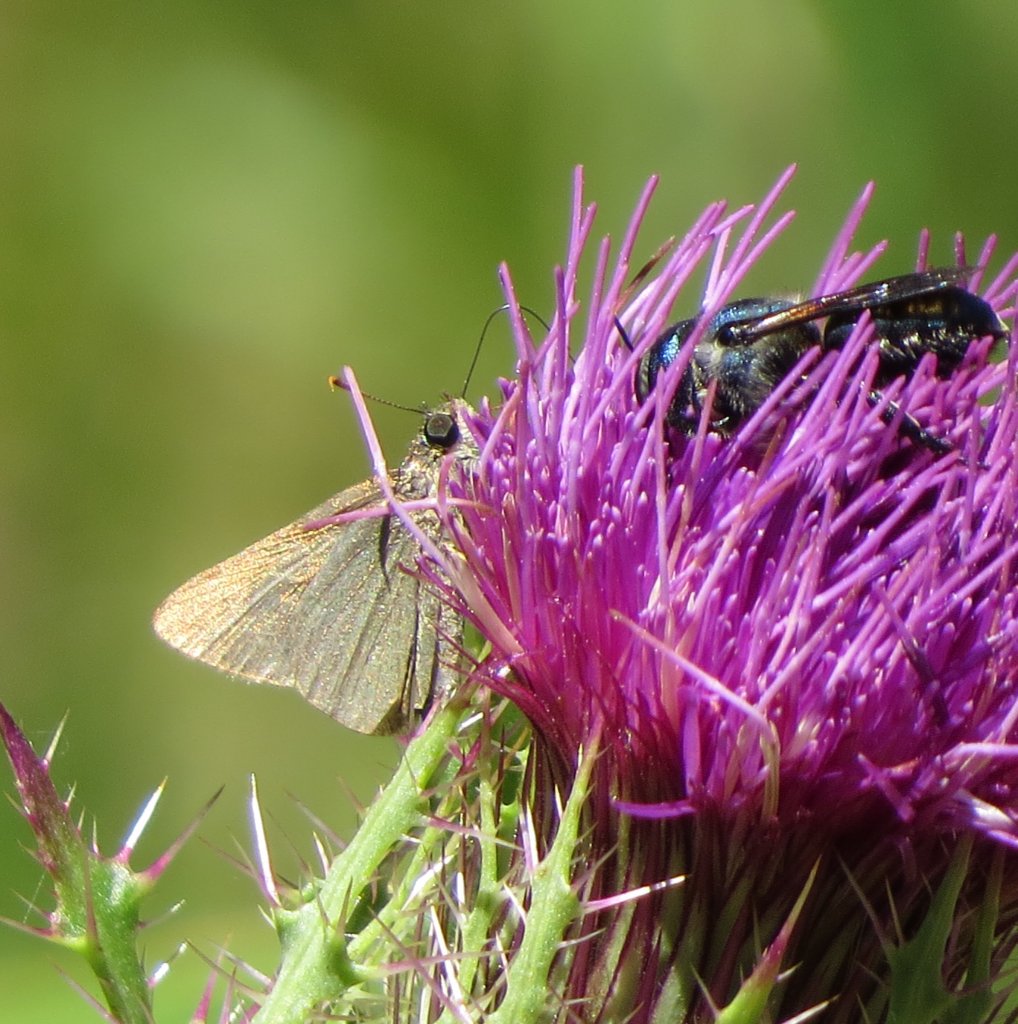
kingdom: Animalia
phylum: Arthropoda
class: Insecta
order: Lepidoptera
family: Hesperiidae
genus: Polites
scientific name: Polites themistocles
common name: Tawny-edged Skipper
